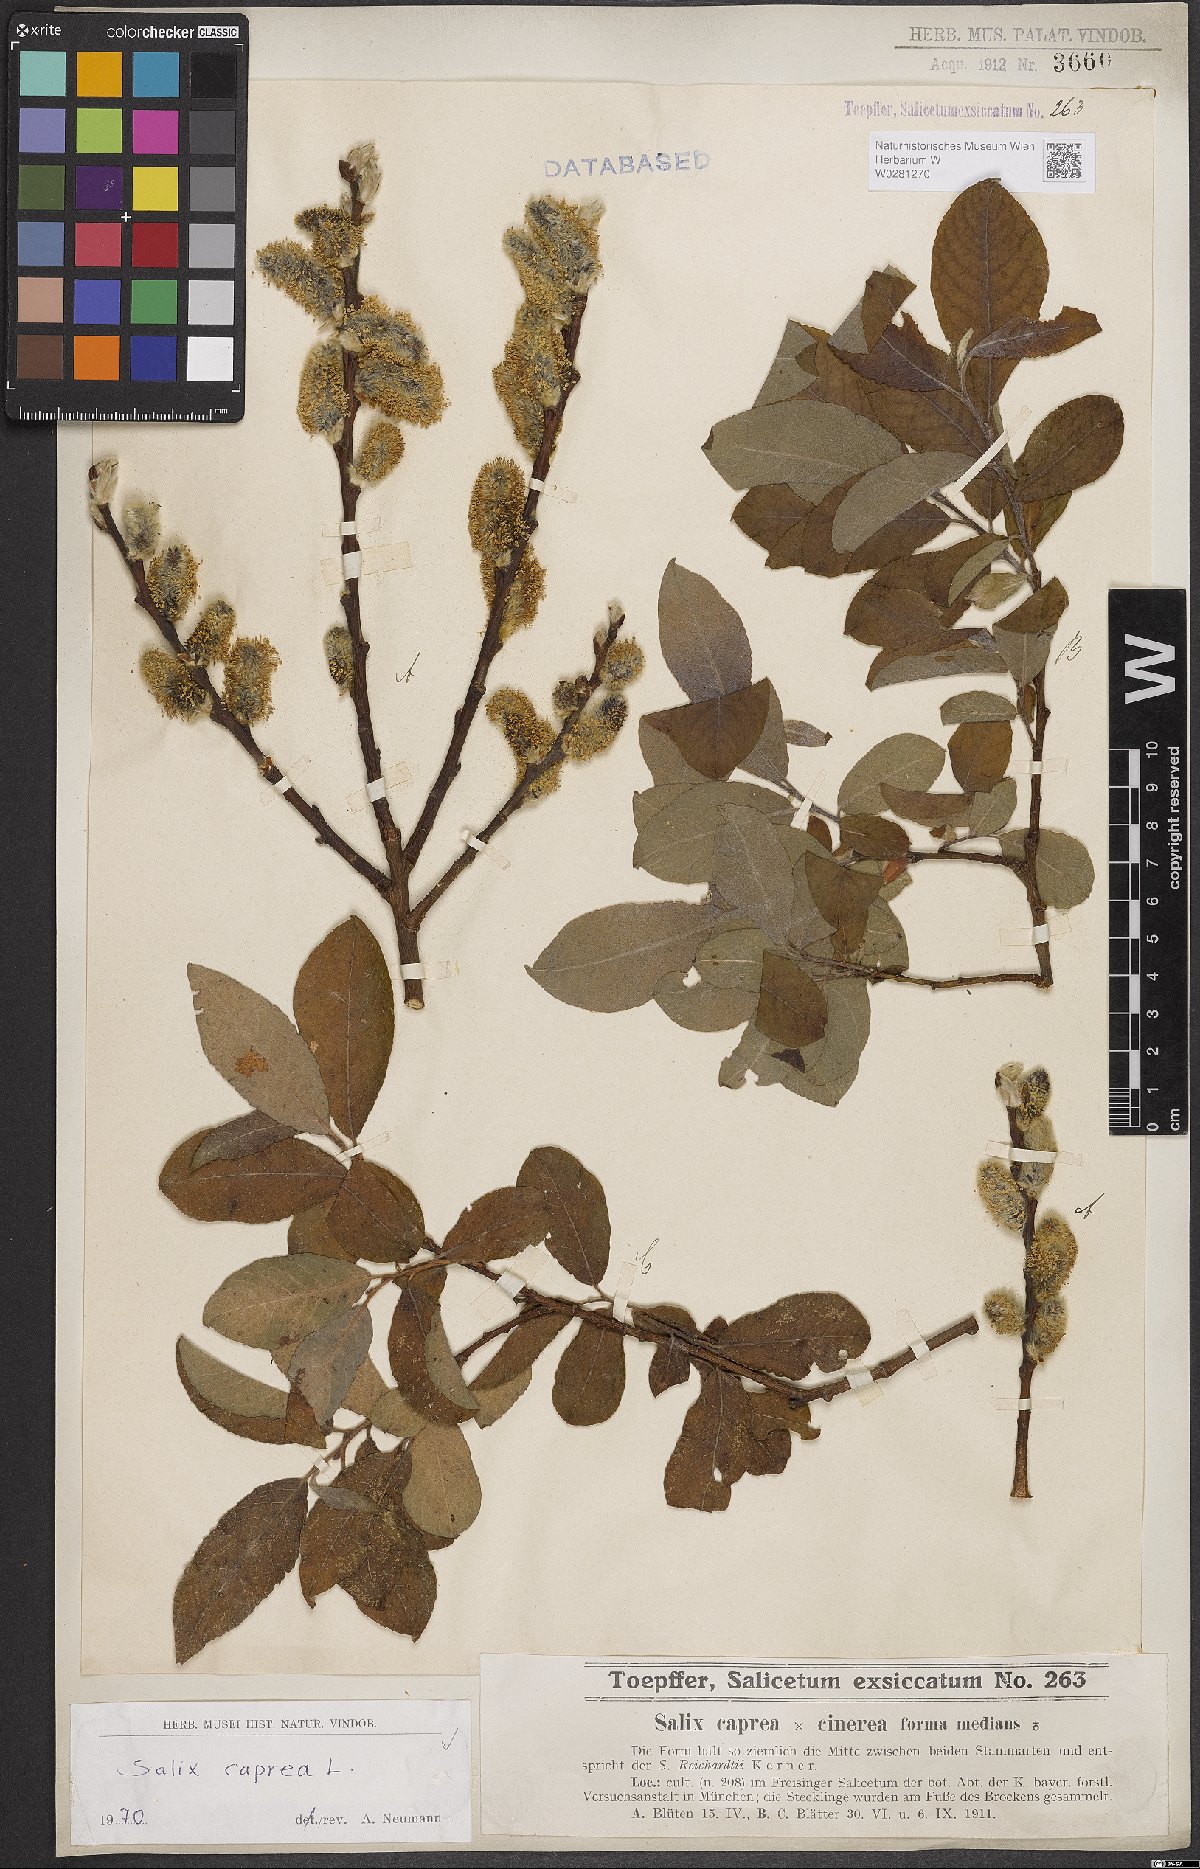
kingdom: Plantae
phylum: Tracheophyta
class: Magnoliopsida
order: Malpighiales
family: Salicaceae
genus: Salix
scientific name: Salix caprea
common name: Goat willow
